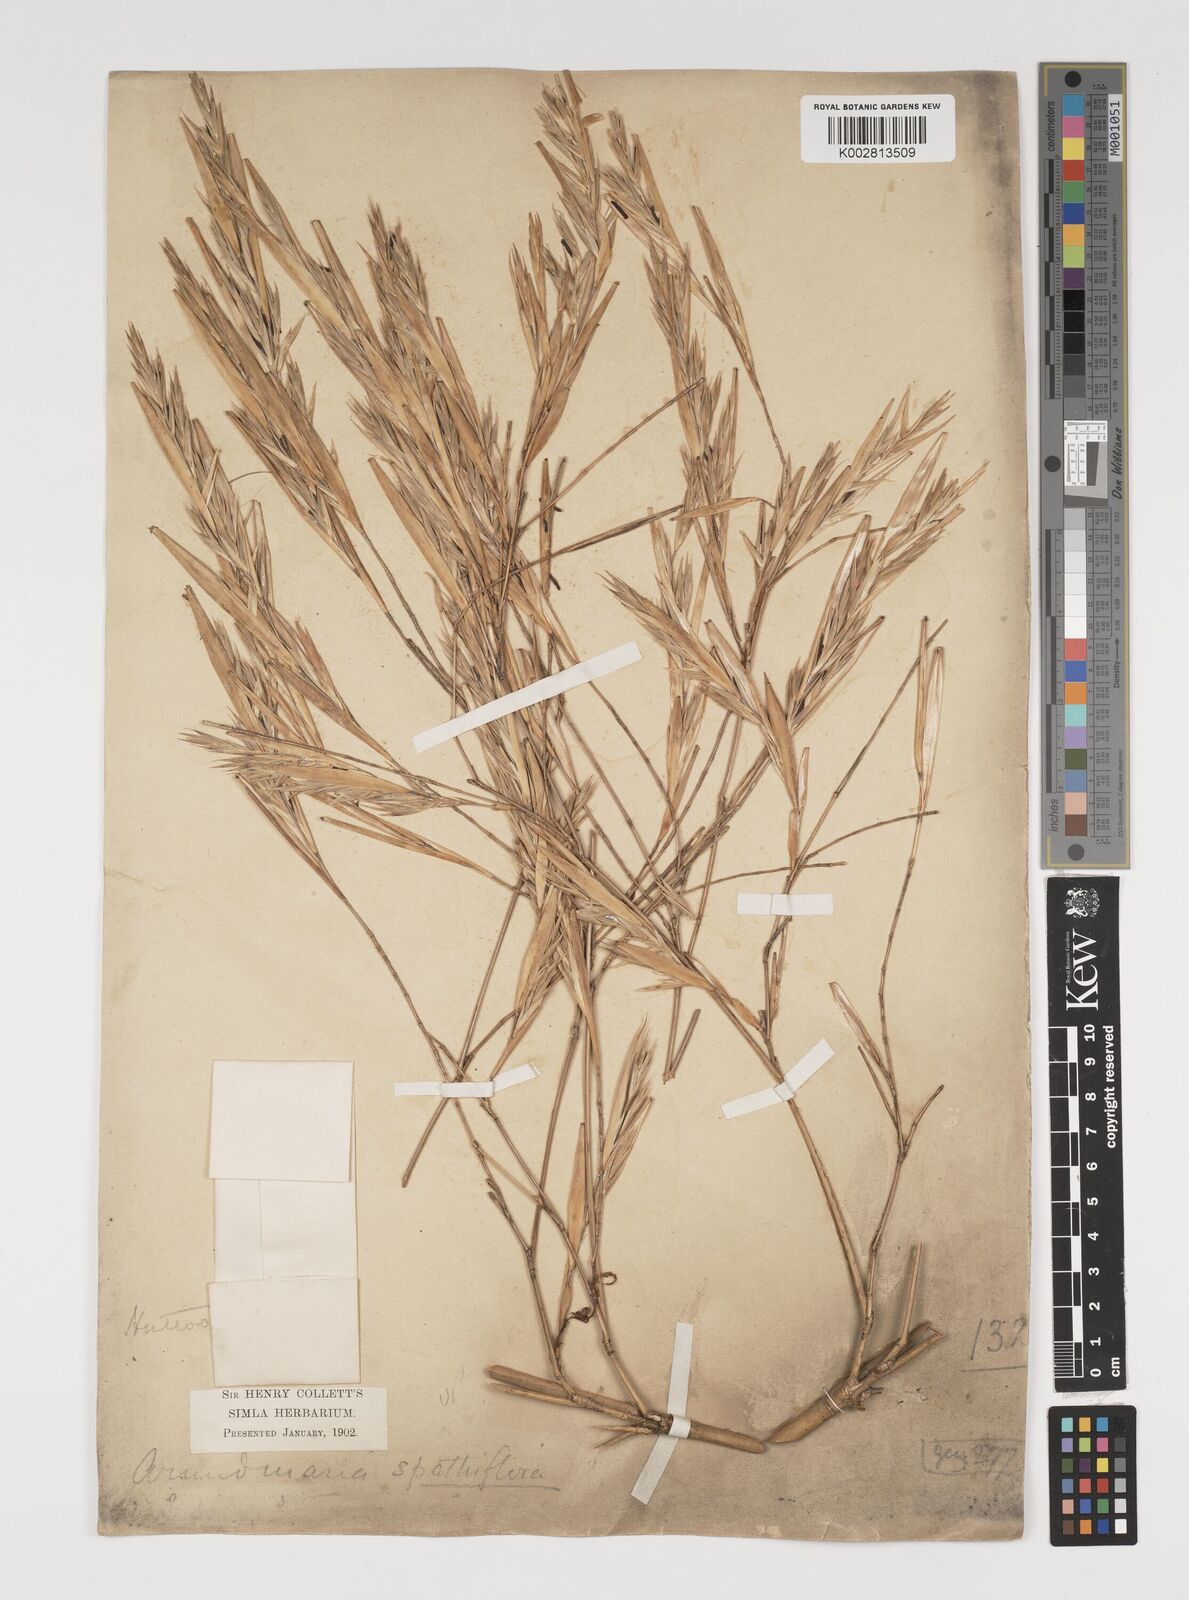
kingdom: Plantae
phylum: Tracheophyta
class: Liliopsida
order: Poales
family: Poaceae
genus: Thamnocalamus
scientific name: Thamnocalamus spathiflorus
